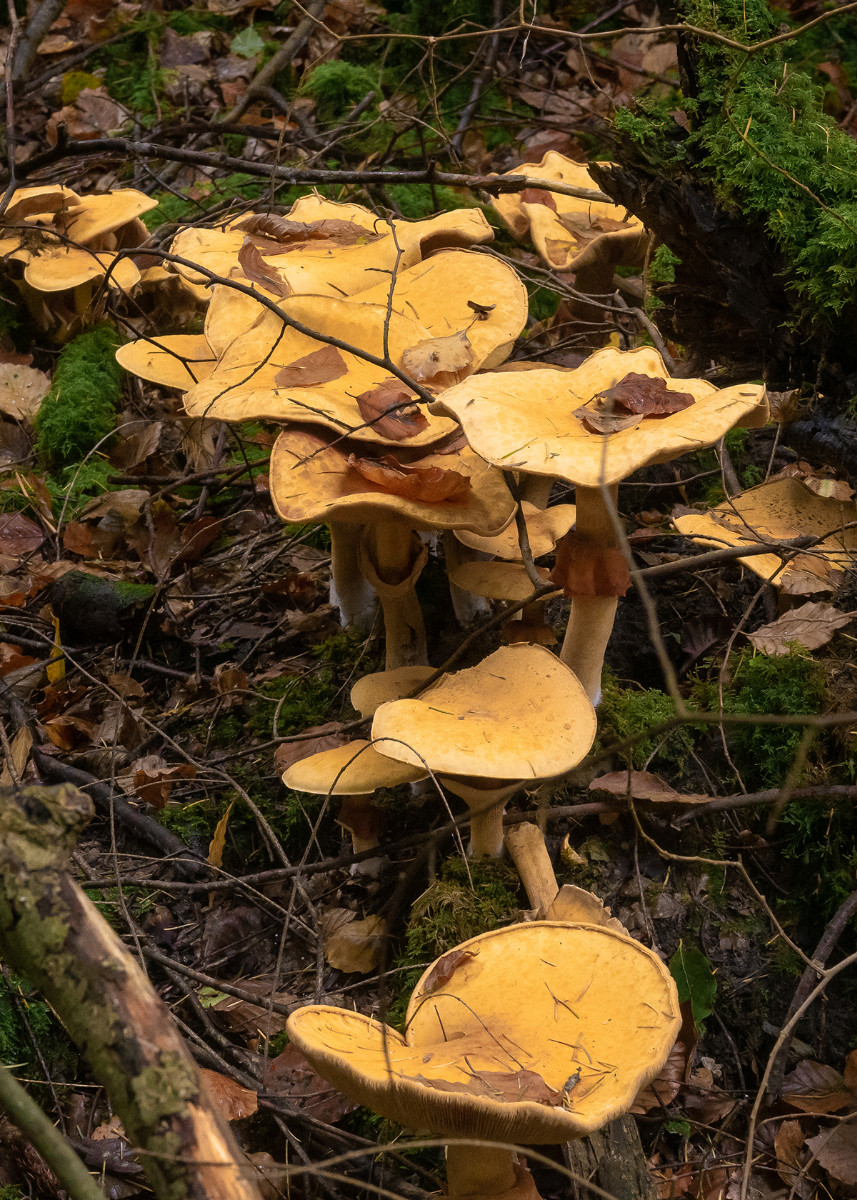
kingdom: Fungi
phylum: Basidiomycota
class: Agaricomycetes
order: Agaricales
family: Tricholomataceae
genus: Phaeolepiota
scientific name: Phaeolepiota
